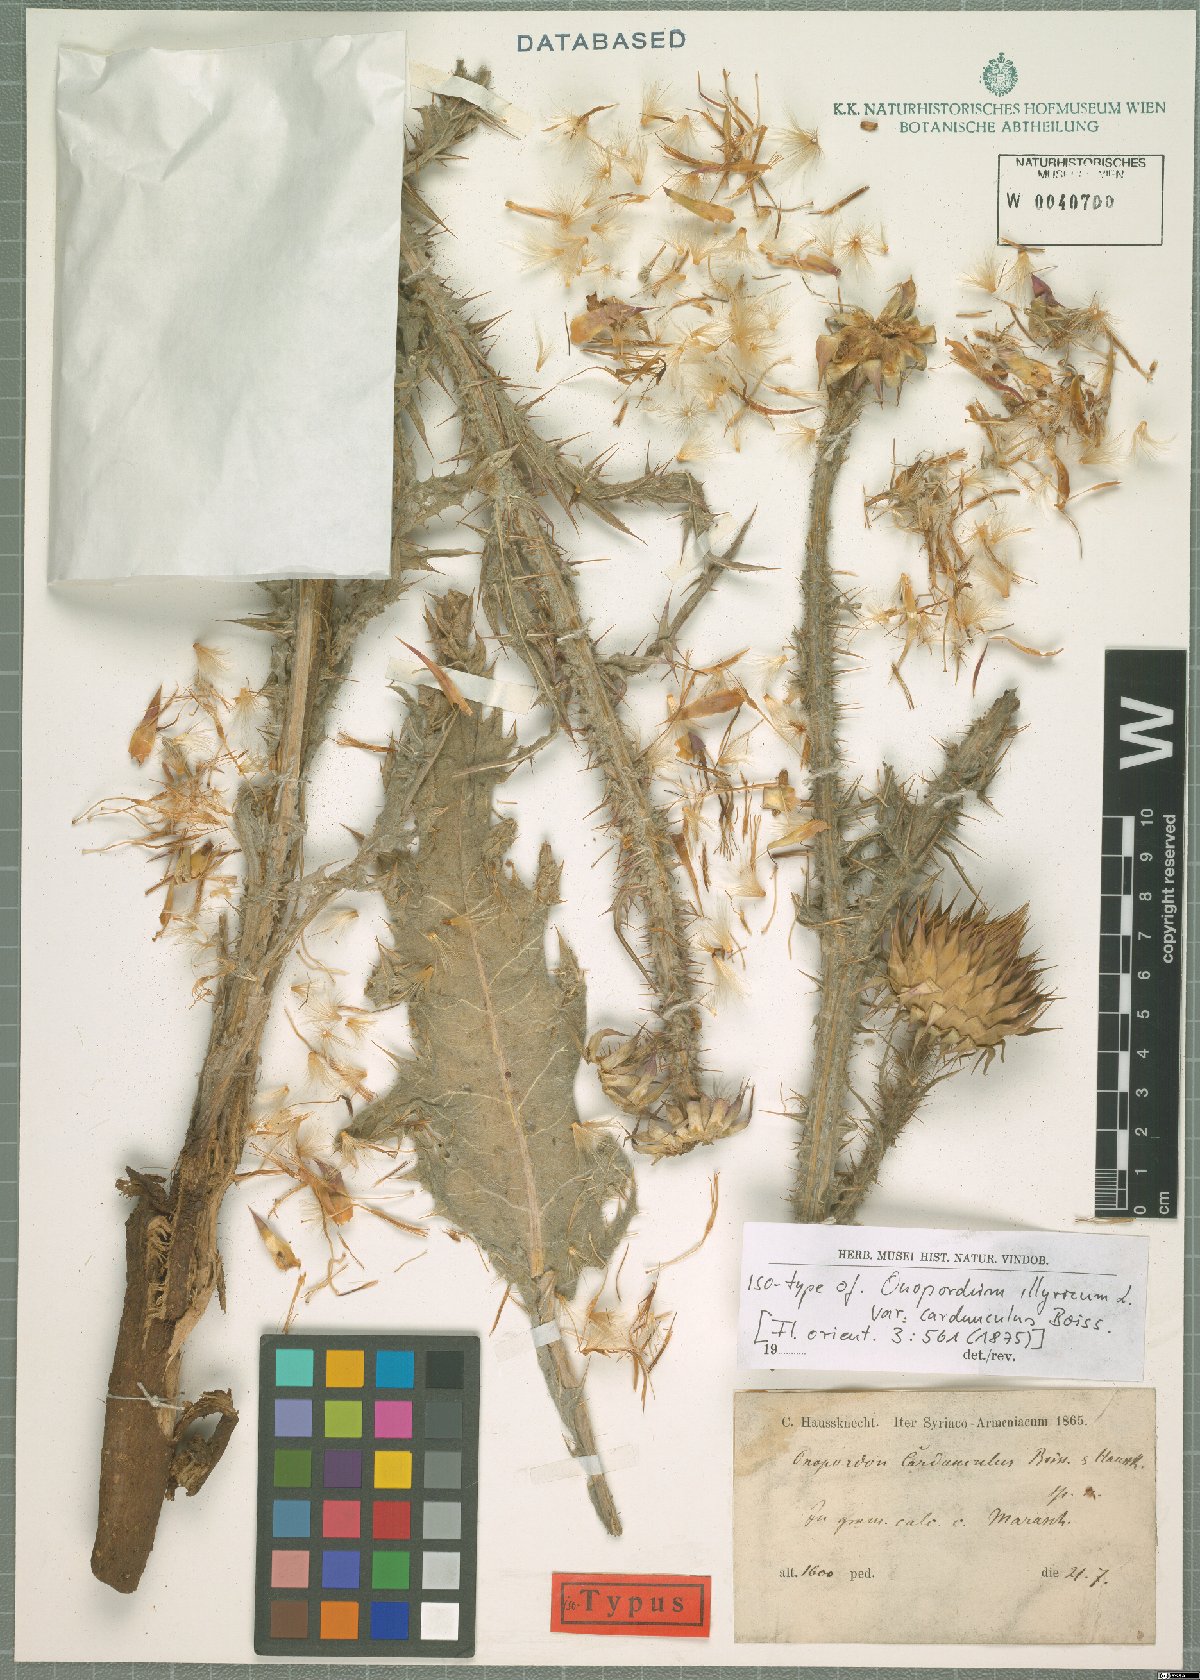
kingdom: Plantae
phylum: Tracheophyta
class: Magnoliopsida
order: Asterales
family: Asteraceae
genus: Onopordum
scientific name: Onopordum illyricum
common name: Illyrian thistle
